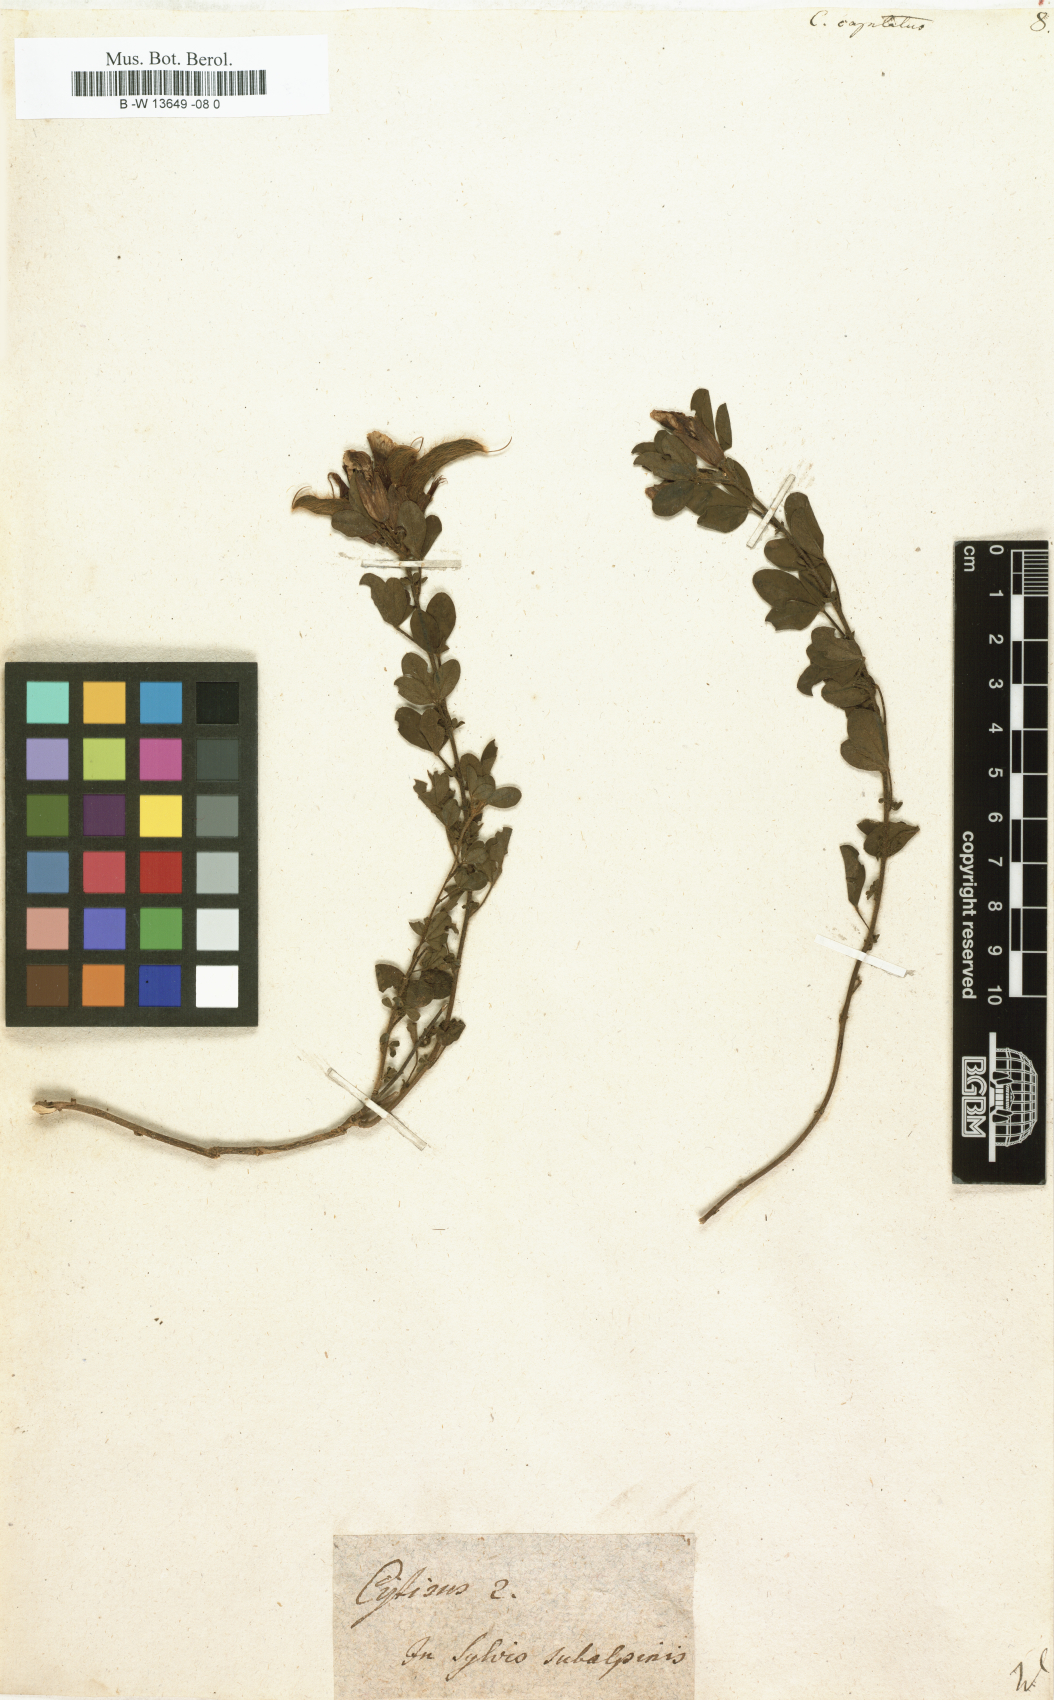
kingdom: Plantae
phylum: Tracheophyta
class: Magnoliopsida
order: Fabales
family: Fabaceae
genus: Chamaecytisus
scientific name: Chamaecytisus hirsutus
